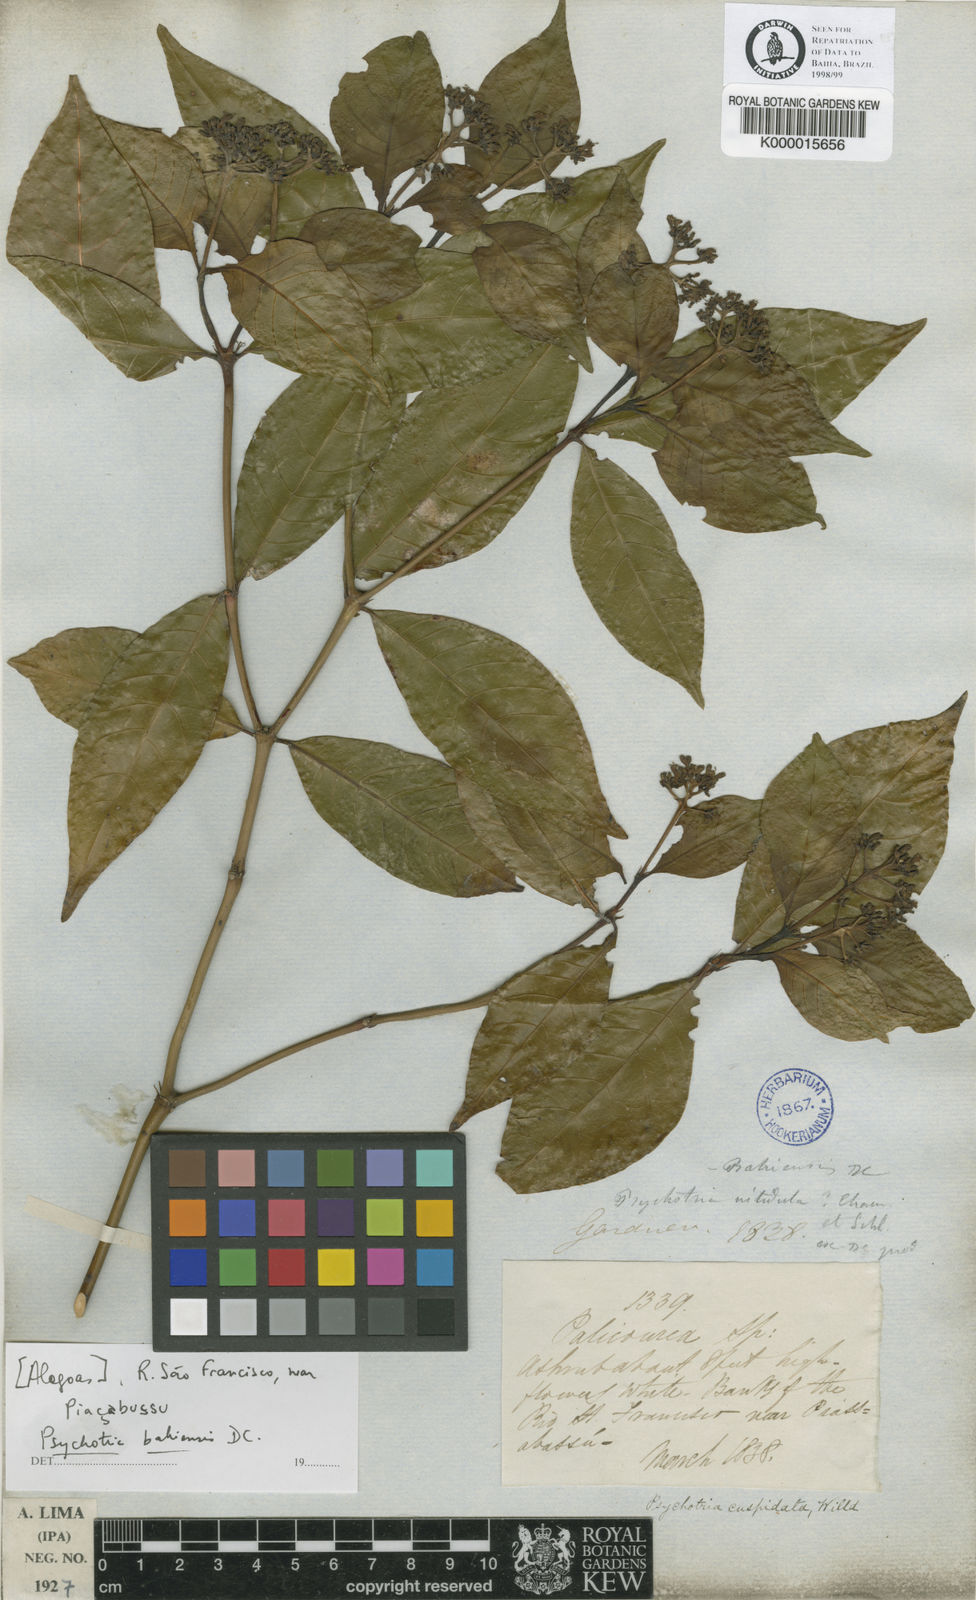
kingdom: Plantae
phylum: Tracheophyta
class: Magnoliopsida
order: Gentianales
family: Rubiaceae
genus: Psychotria
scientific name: Psychotria
